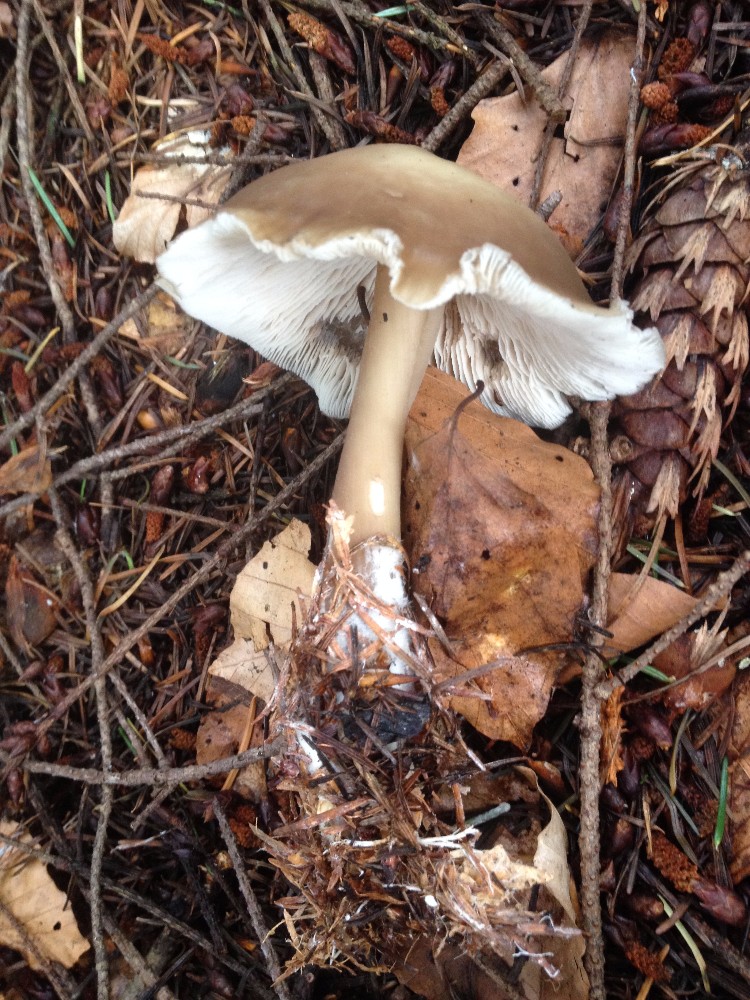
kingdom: Fungi
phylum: Basidiomycota
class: Agaricomycetes
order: Agaricales
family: Omphalotaceae
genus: Rhodocollybia
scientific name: Rhodocollybia asema
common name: horngrå fladhat
